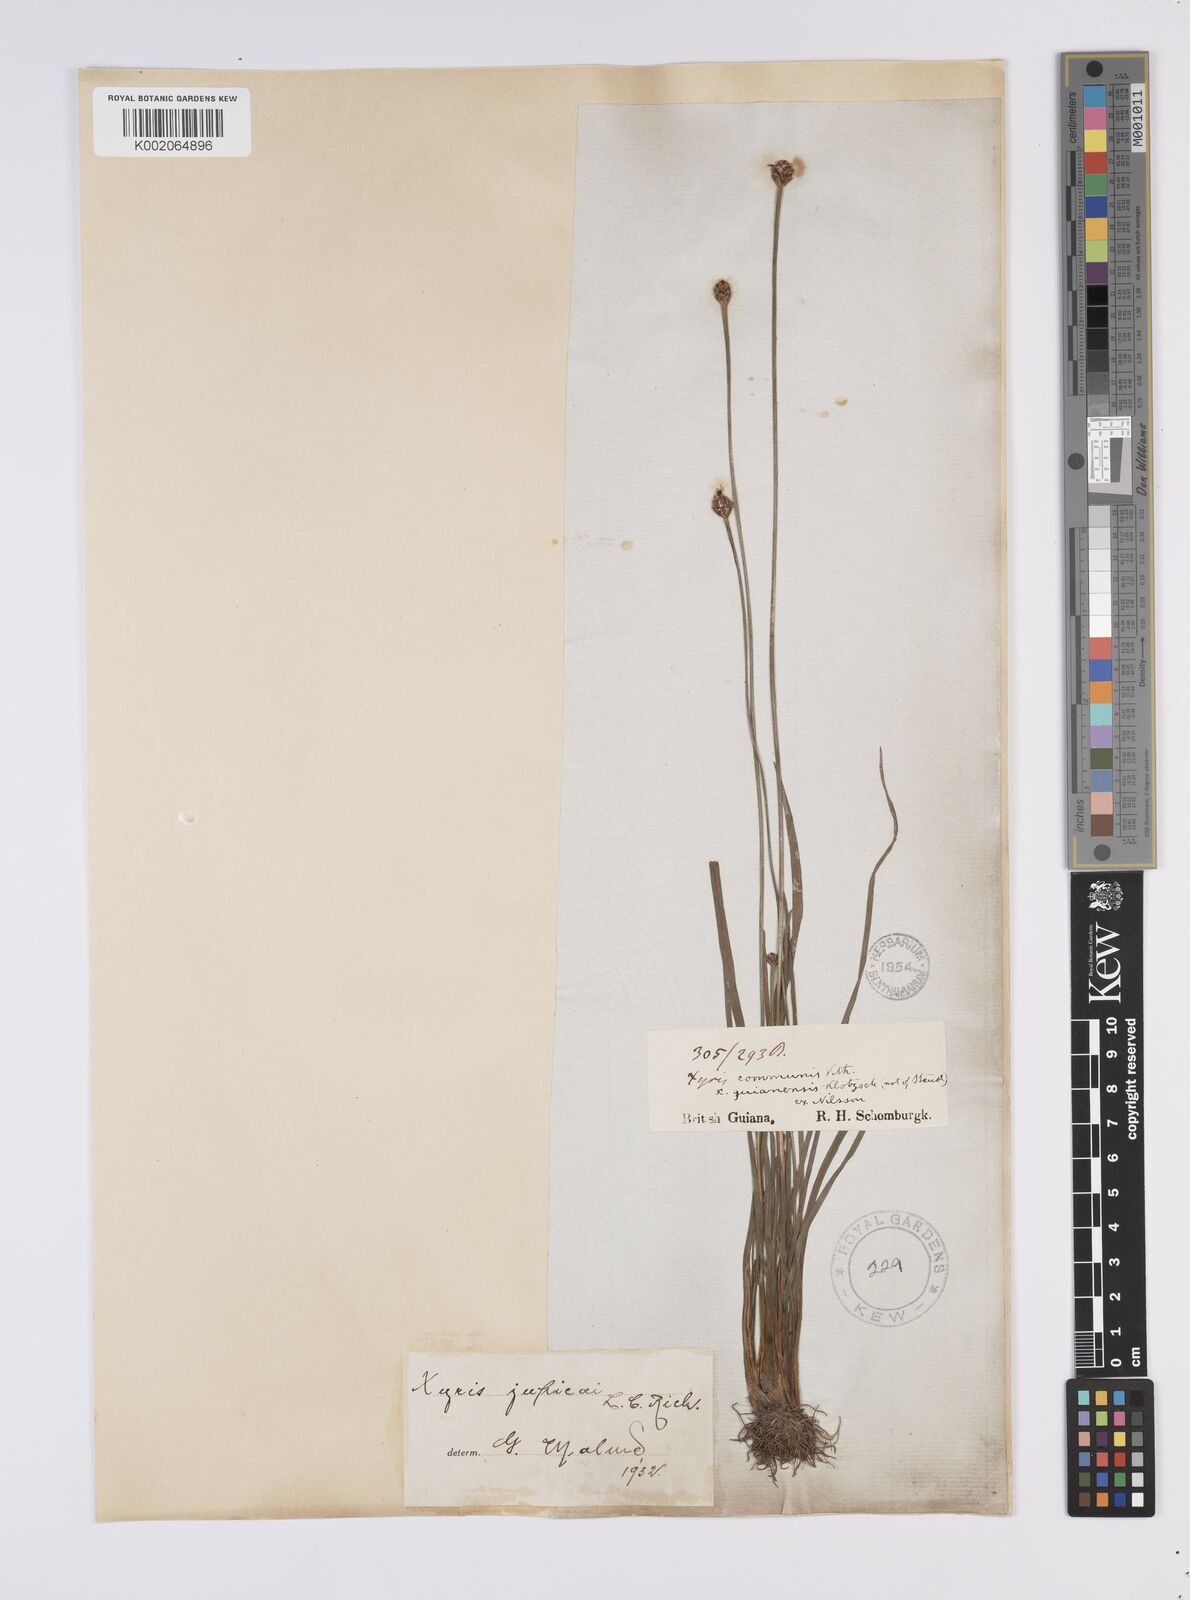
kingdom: Plantae
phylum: Tracheophyta
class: Liliopsida
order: Poales
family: Xyridaceae
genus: Xyris
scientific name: Xyris jupicai
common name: Richard's yelloweyed grass
